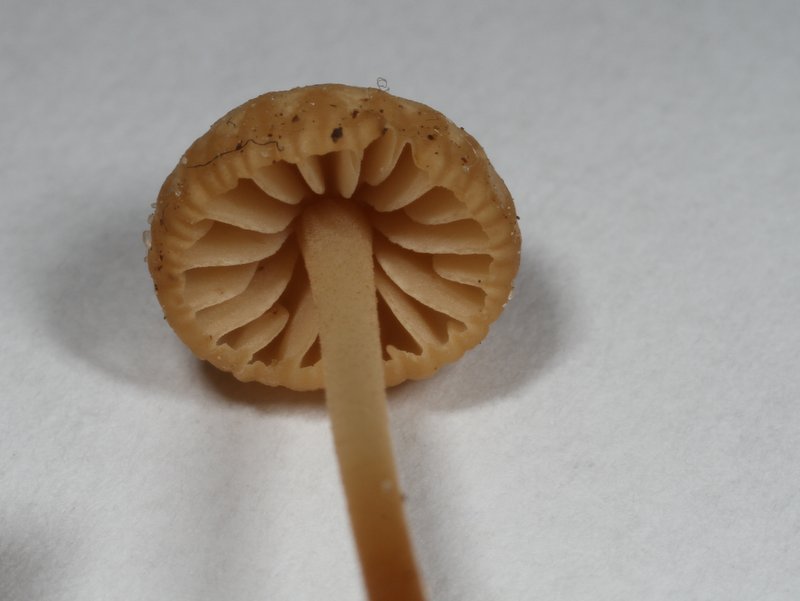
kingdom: Fungi
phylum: Basidiomycota
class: Agaricomycetes
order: Agaricales
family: Marasmiaceae
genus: Marasmius
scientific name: Marasmius torquescens
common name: filtfodet bruskhat
